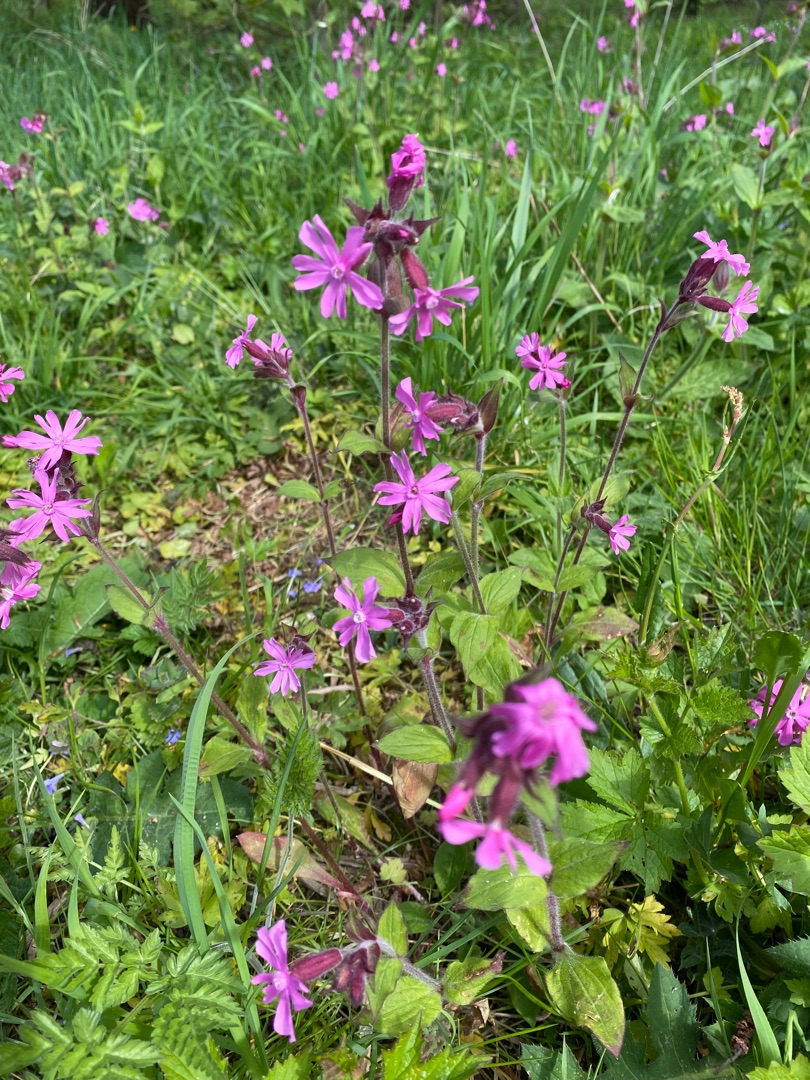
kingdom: Plantae
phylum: Tracheophyta
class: Magnoliopsida
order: Caryophyllales
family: Caryophyllaceae
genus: Silene
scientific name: Silene dioica
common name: Dagpragtstjerne
